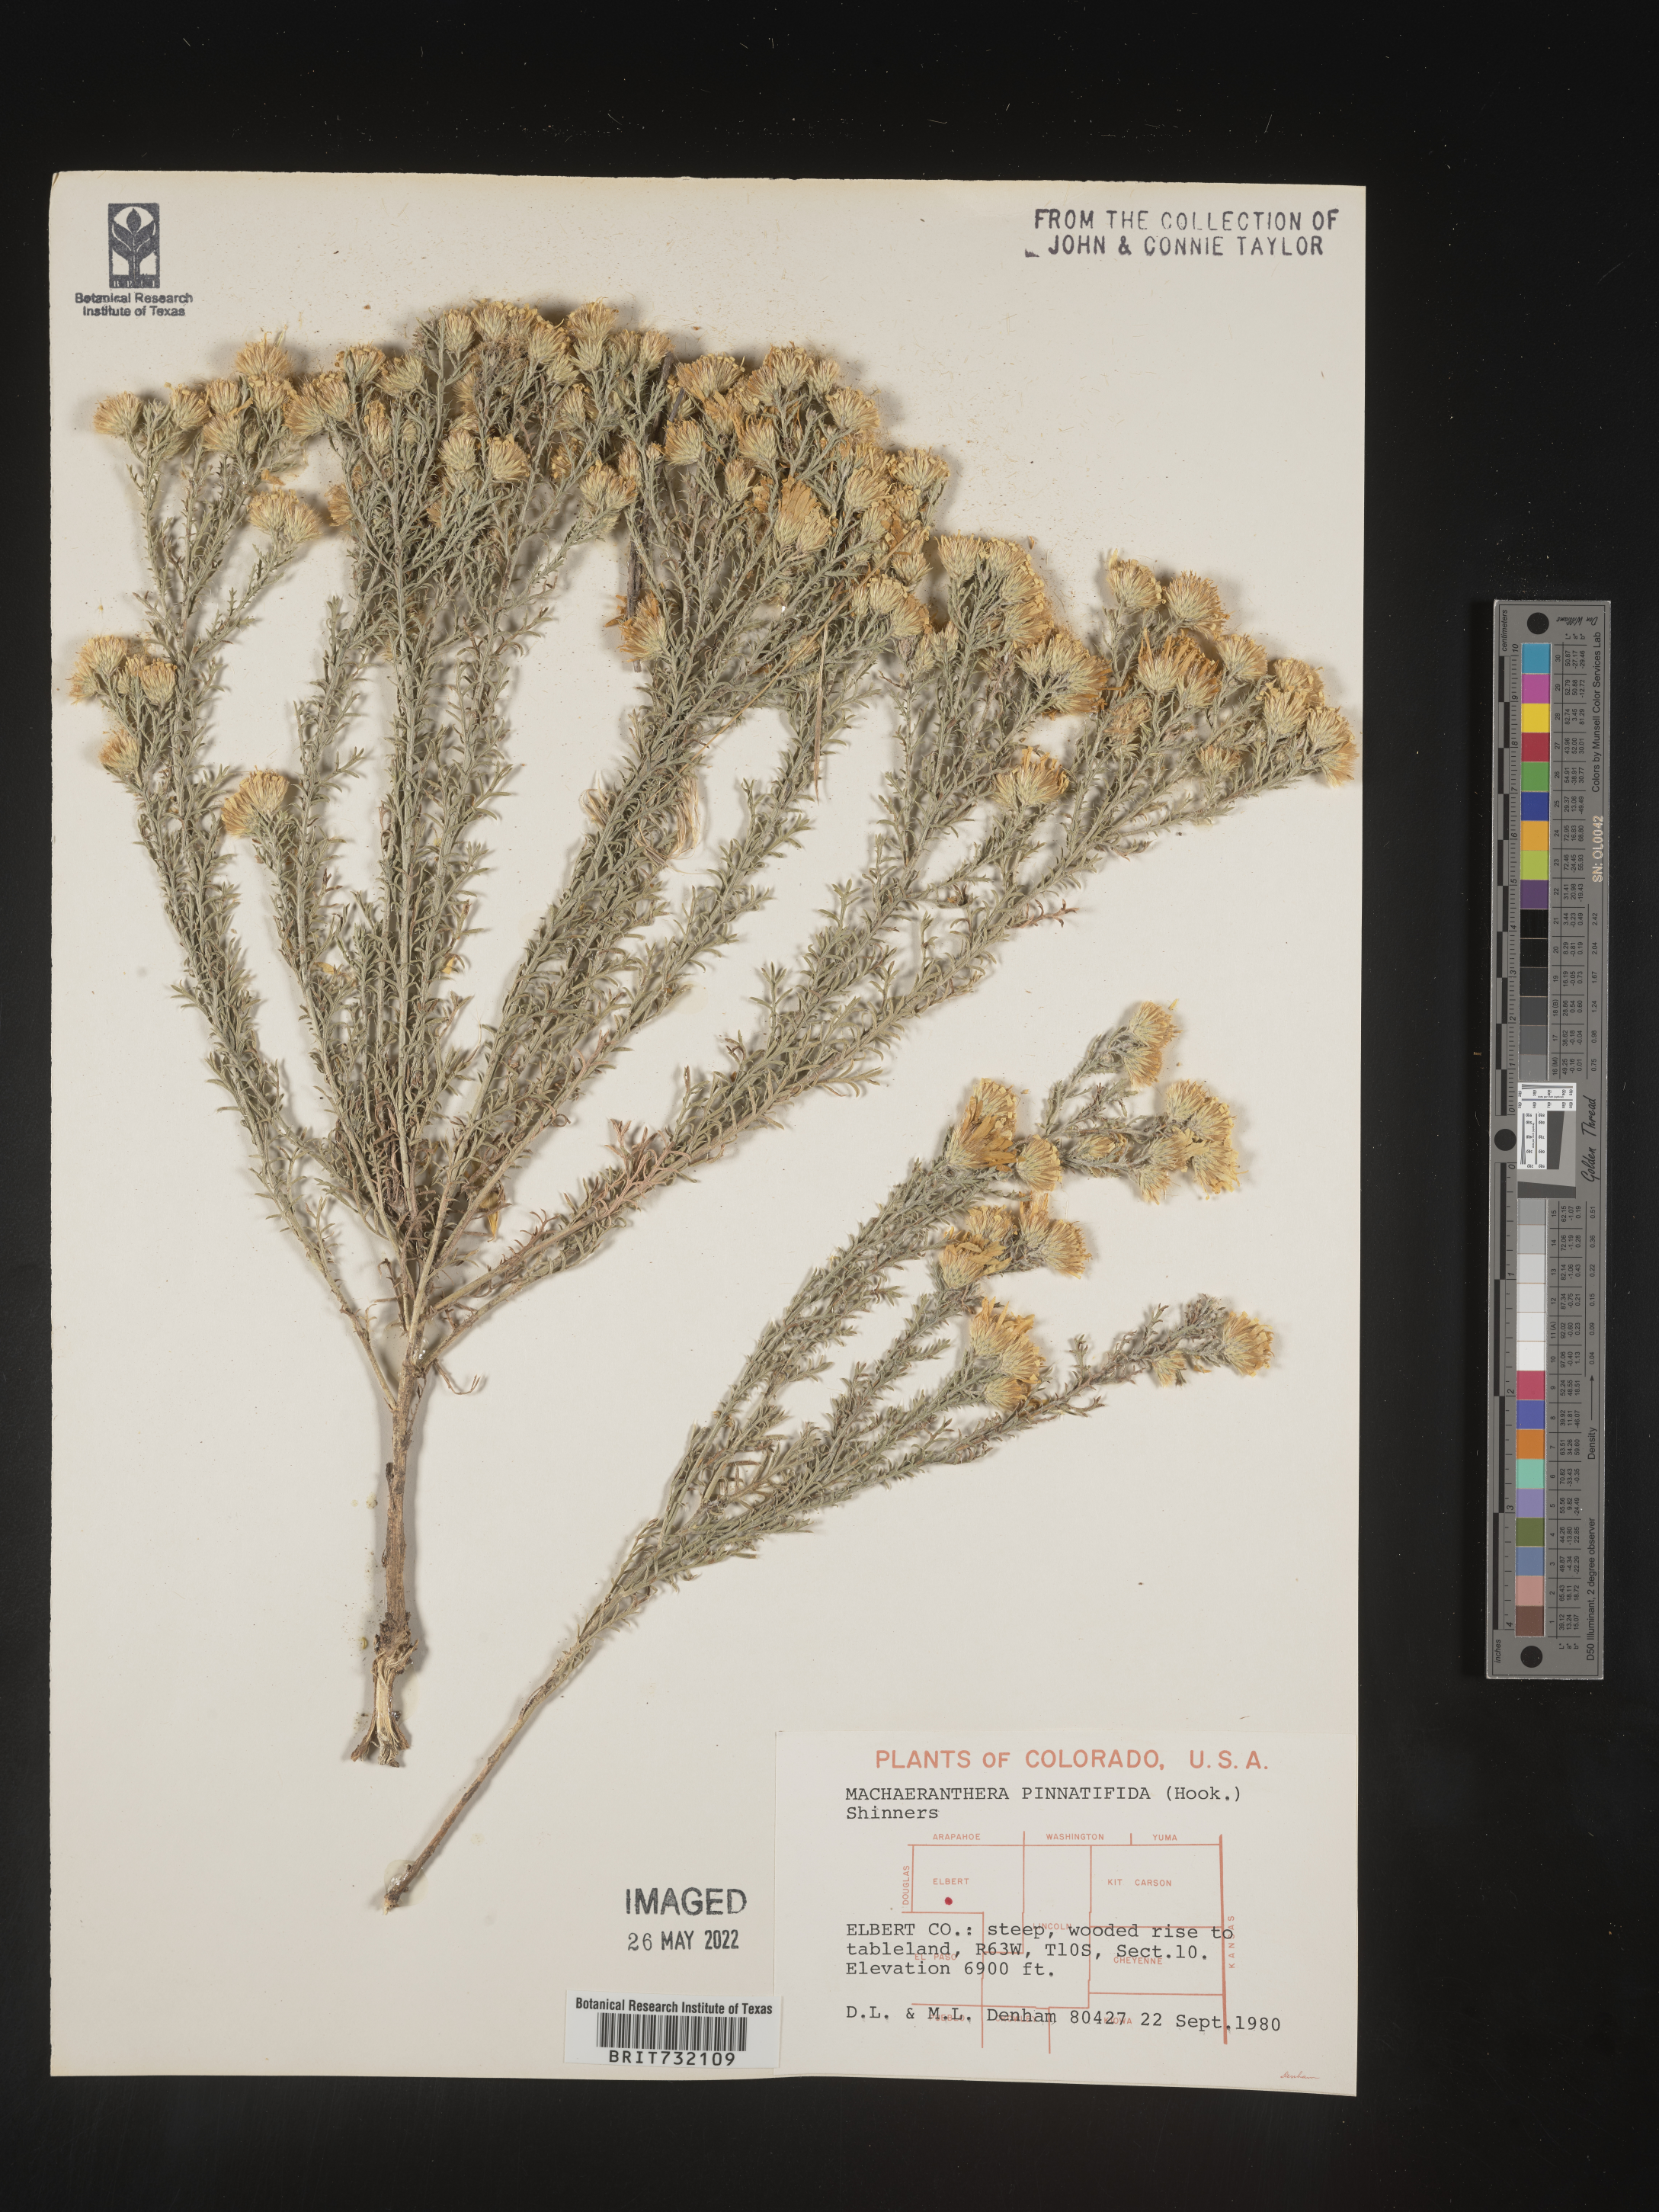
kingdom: Plantae
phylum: Tracheophyta
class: Magnoliopsida
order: Asterales
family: Asteraceae
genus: Xanthisma
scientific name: Xanthisma spinulosum
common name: Spiny goldenweed
